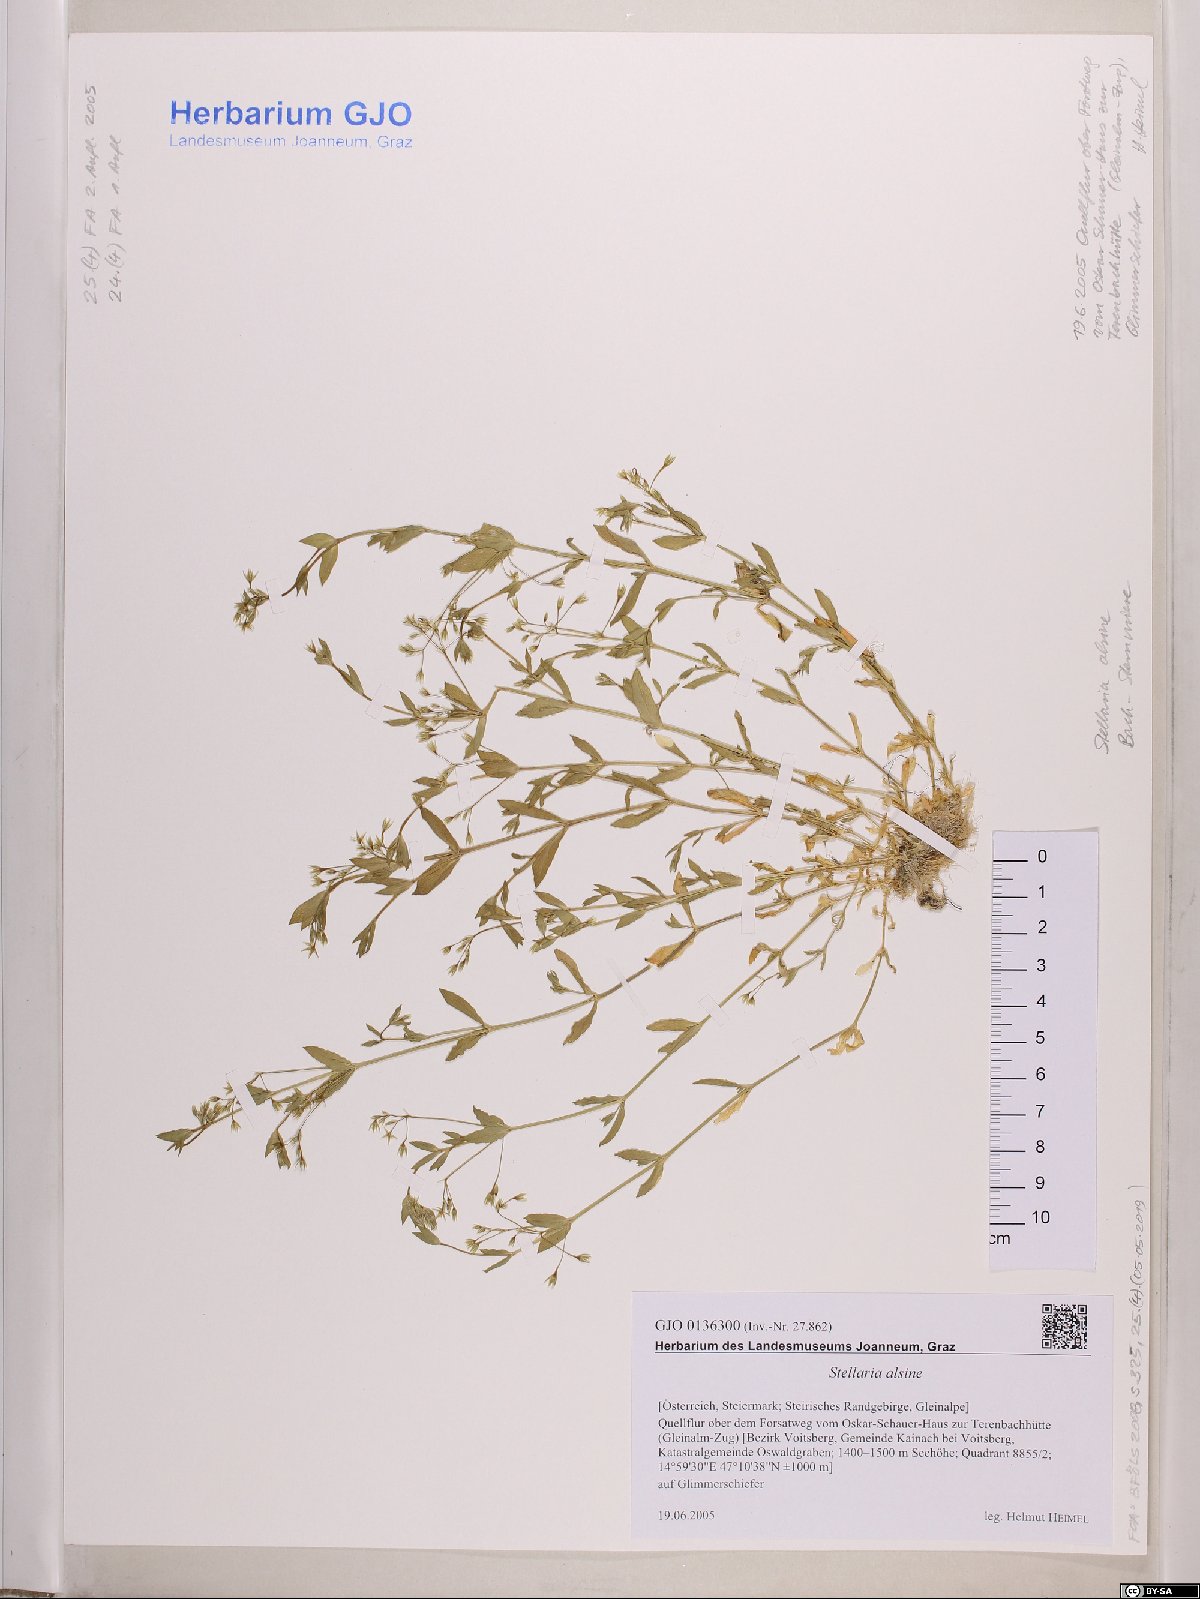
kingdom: Plantae
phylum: Tracheophyta
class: Magnoliopsida
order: Caryophyllales
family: Caryophyllaceae
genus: Stellaria
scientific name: Stellaria alsine
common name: Bog stitchwort
